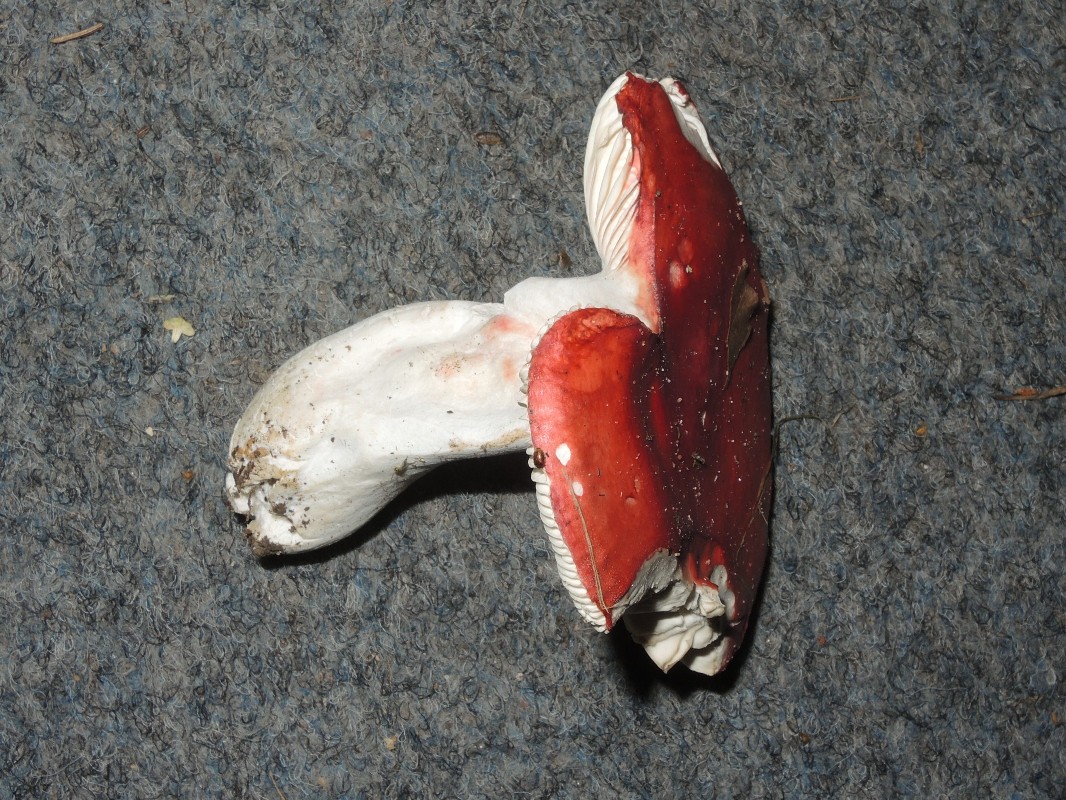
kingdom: Fungi
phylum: Basidiomycota
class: Agaricomycetes
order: Russulales
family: Russulaceae
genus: Russula
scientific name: Russula pseudointegra
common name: cinnoberrød skørhat
